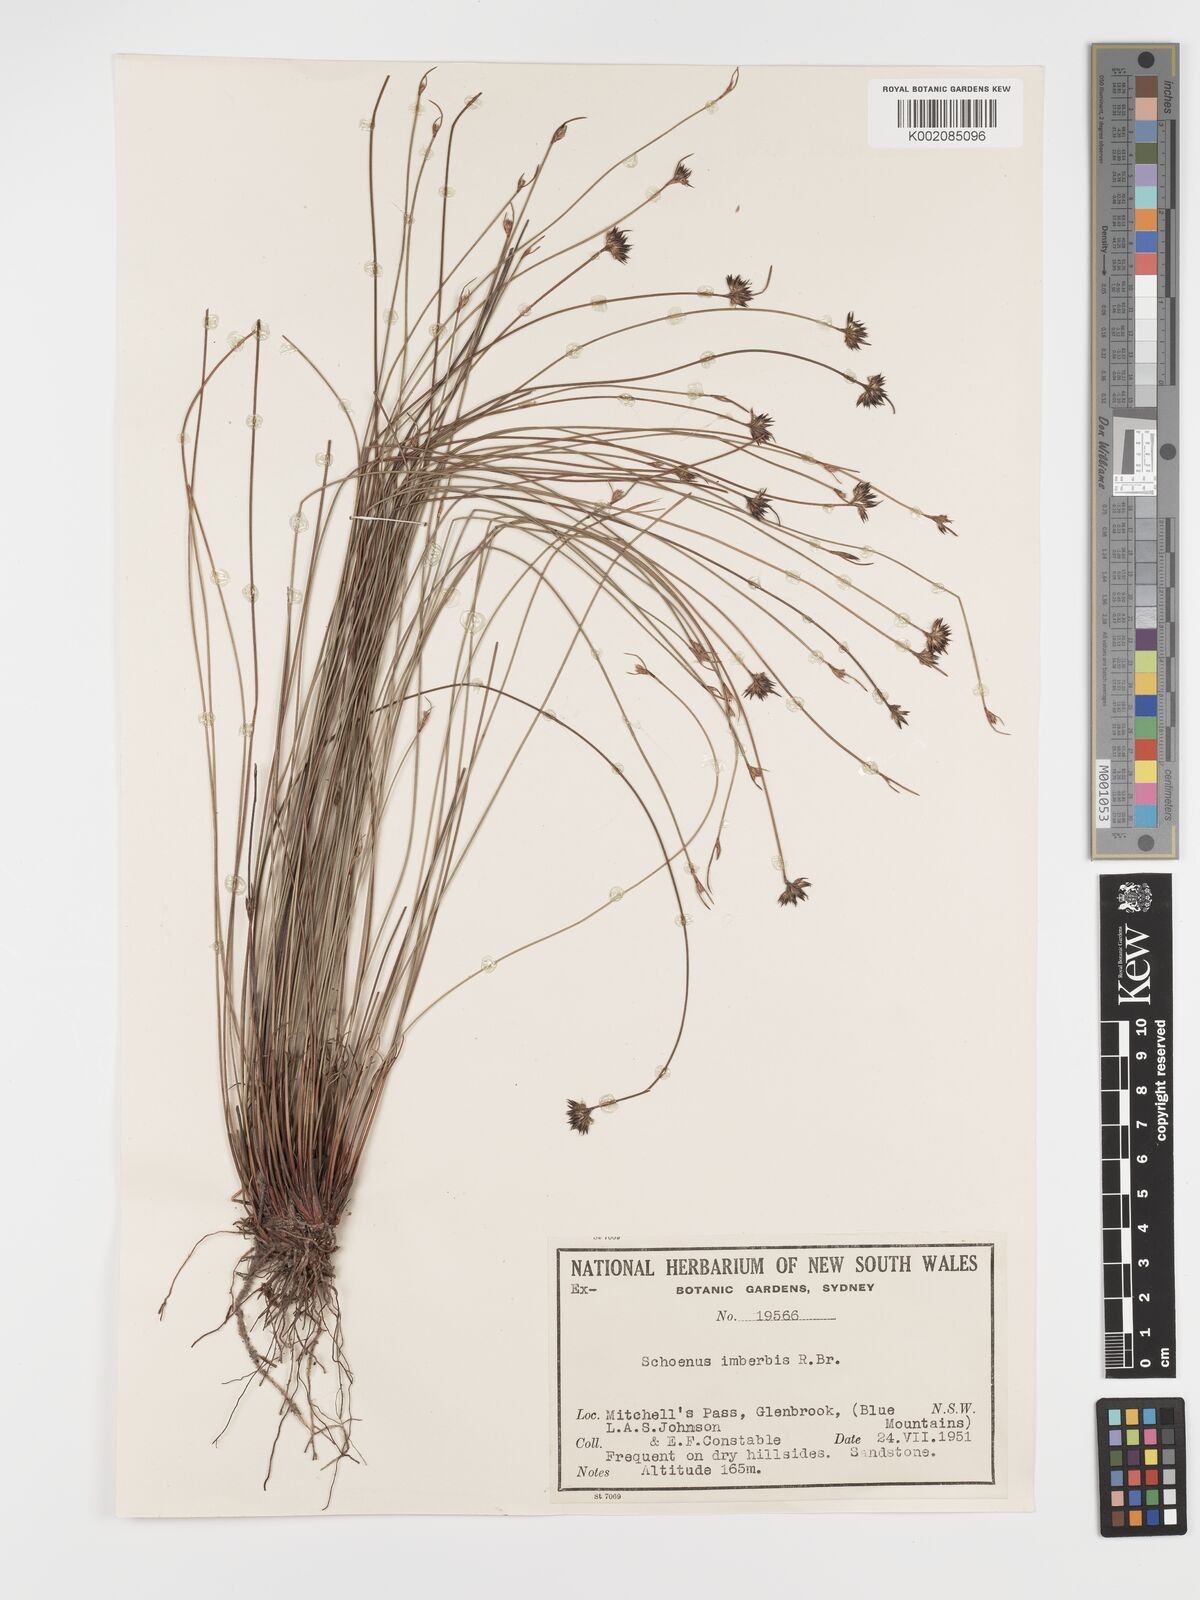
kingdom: Plantae
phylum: Tracheophyta
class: Liliopsida
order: Poales
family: Cyperaceae
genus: Schoenus
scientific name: Schoenus imberbis
